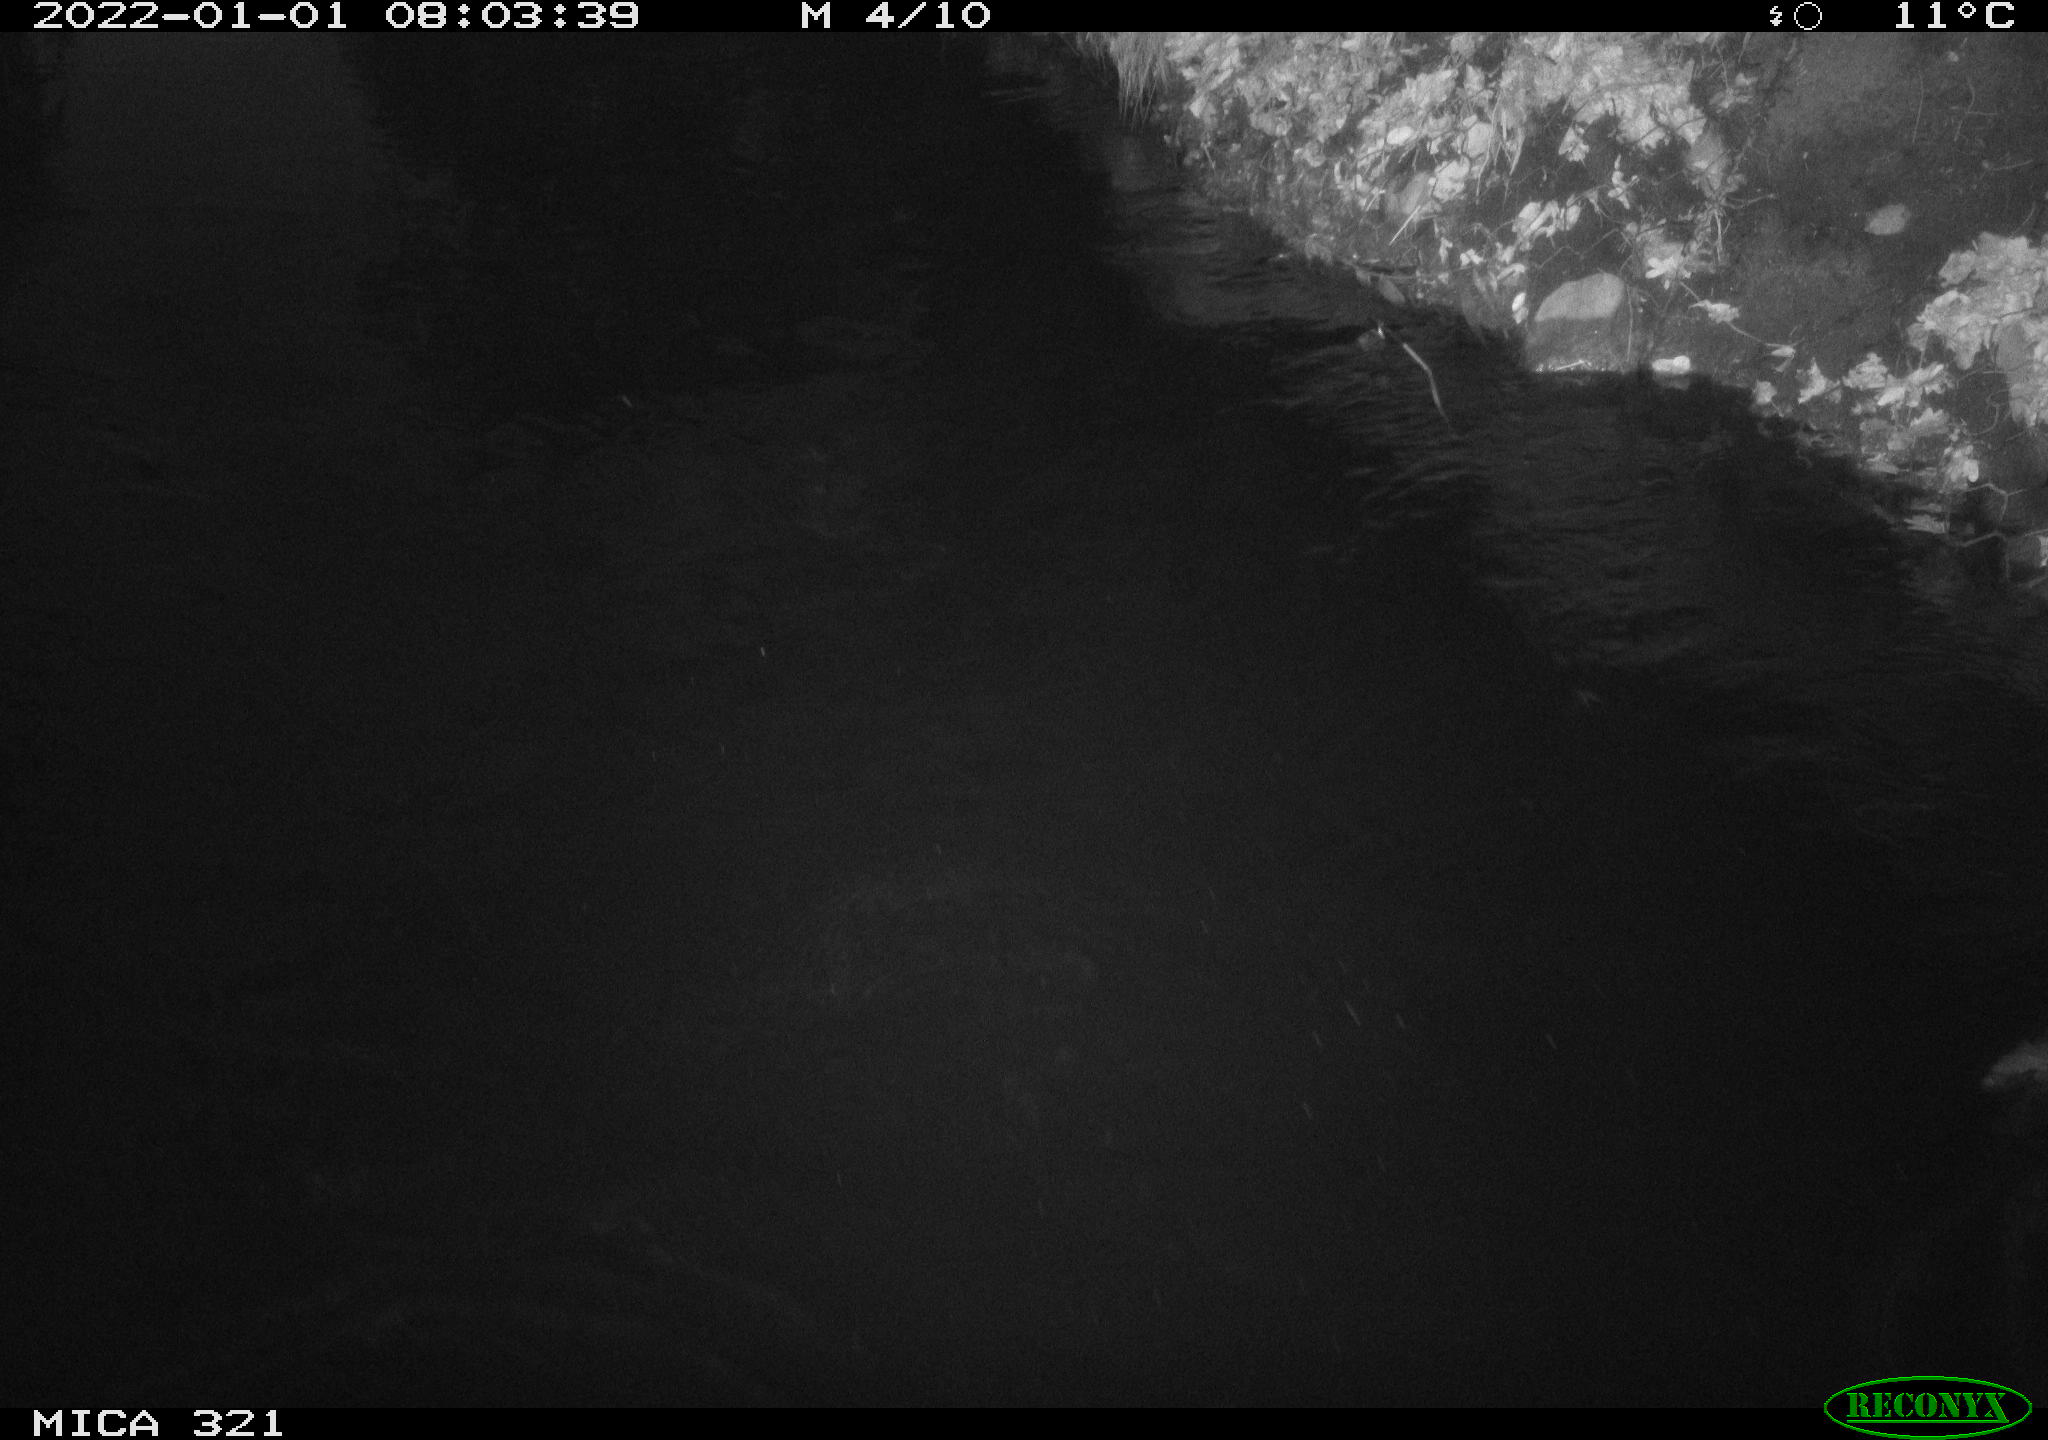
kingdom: Animalia
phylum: Chordata
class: Aves
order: Anseriformes
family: Anatidae
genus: Anas
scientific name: Anas platyrhynchos
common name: Mallard
